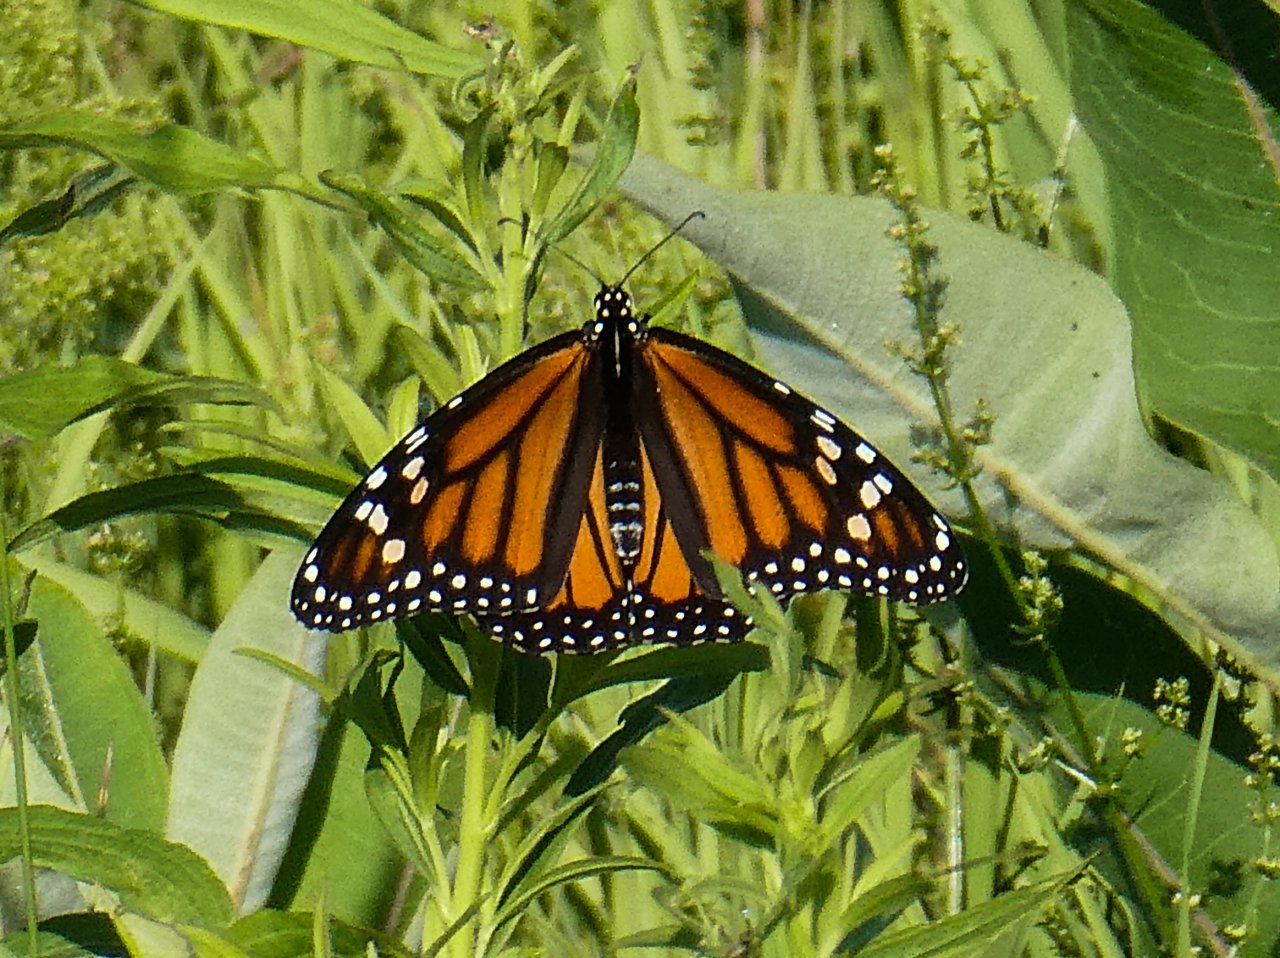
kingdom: Animalia
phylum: Arthropoda
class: Insecta
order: Lepidoptera
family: Nymphalidae
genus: Danaus
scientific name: Danaus plexippus
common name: Monarch
